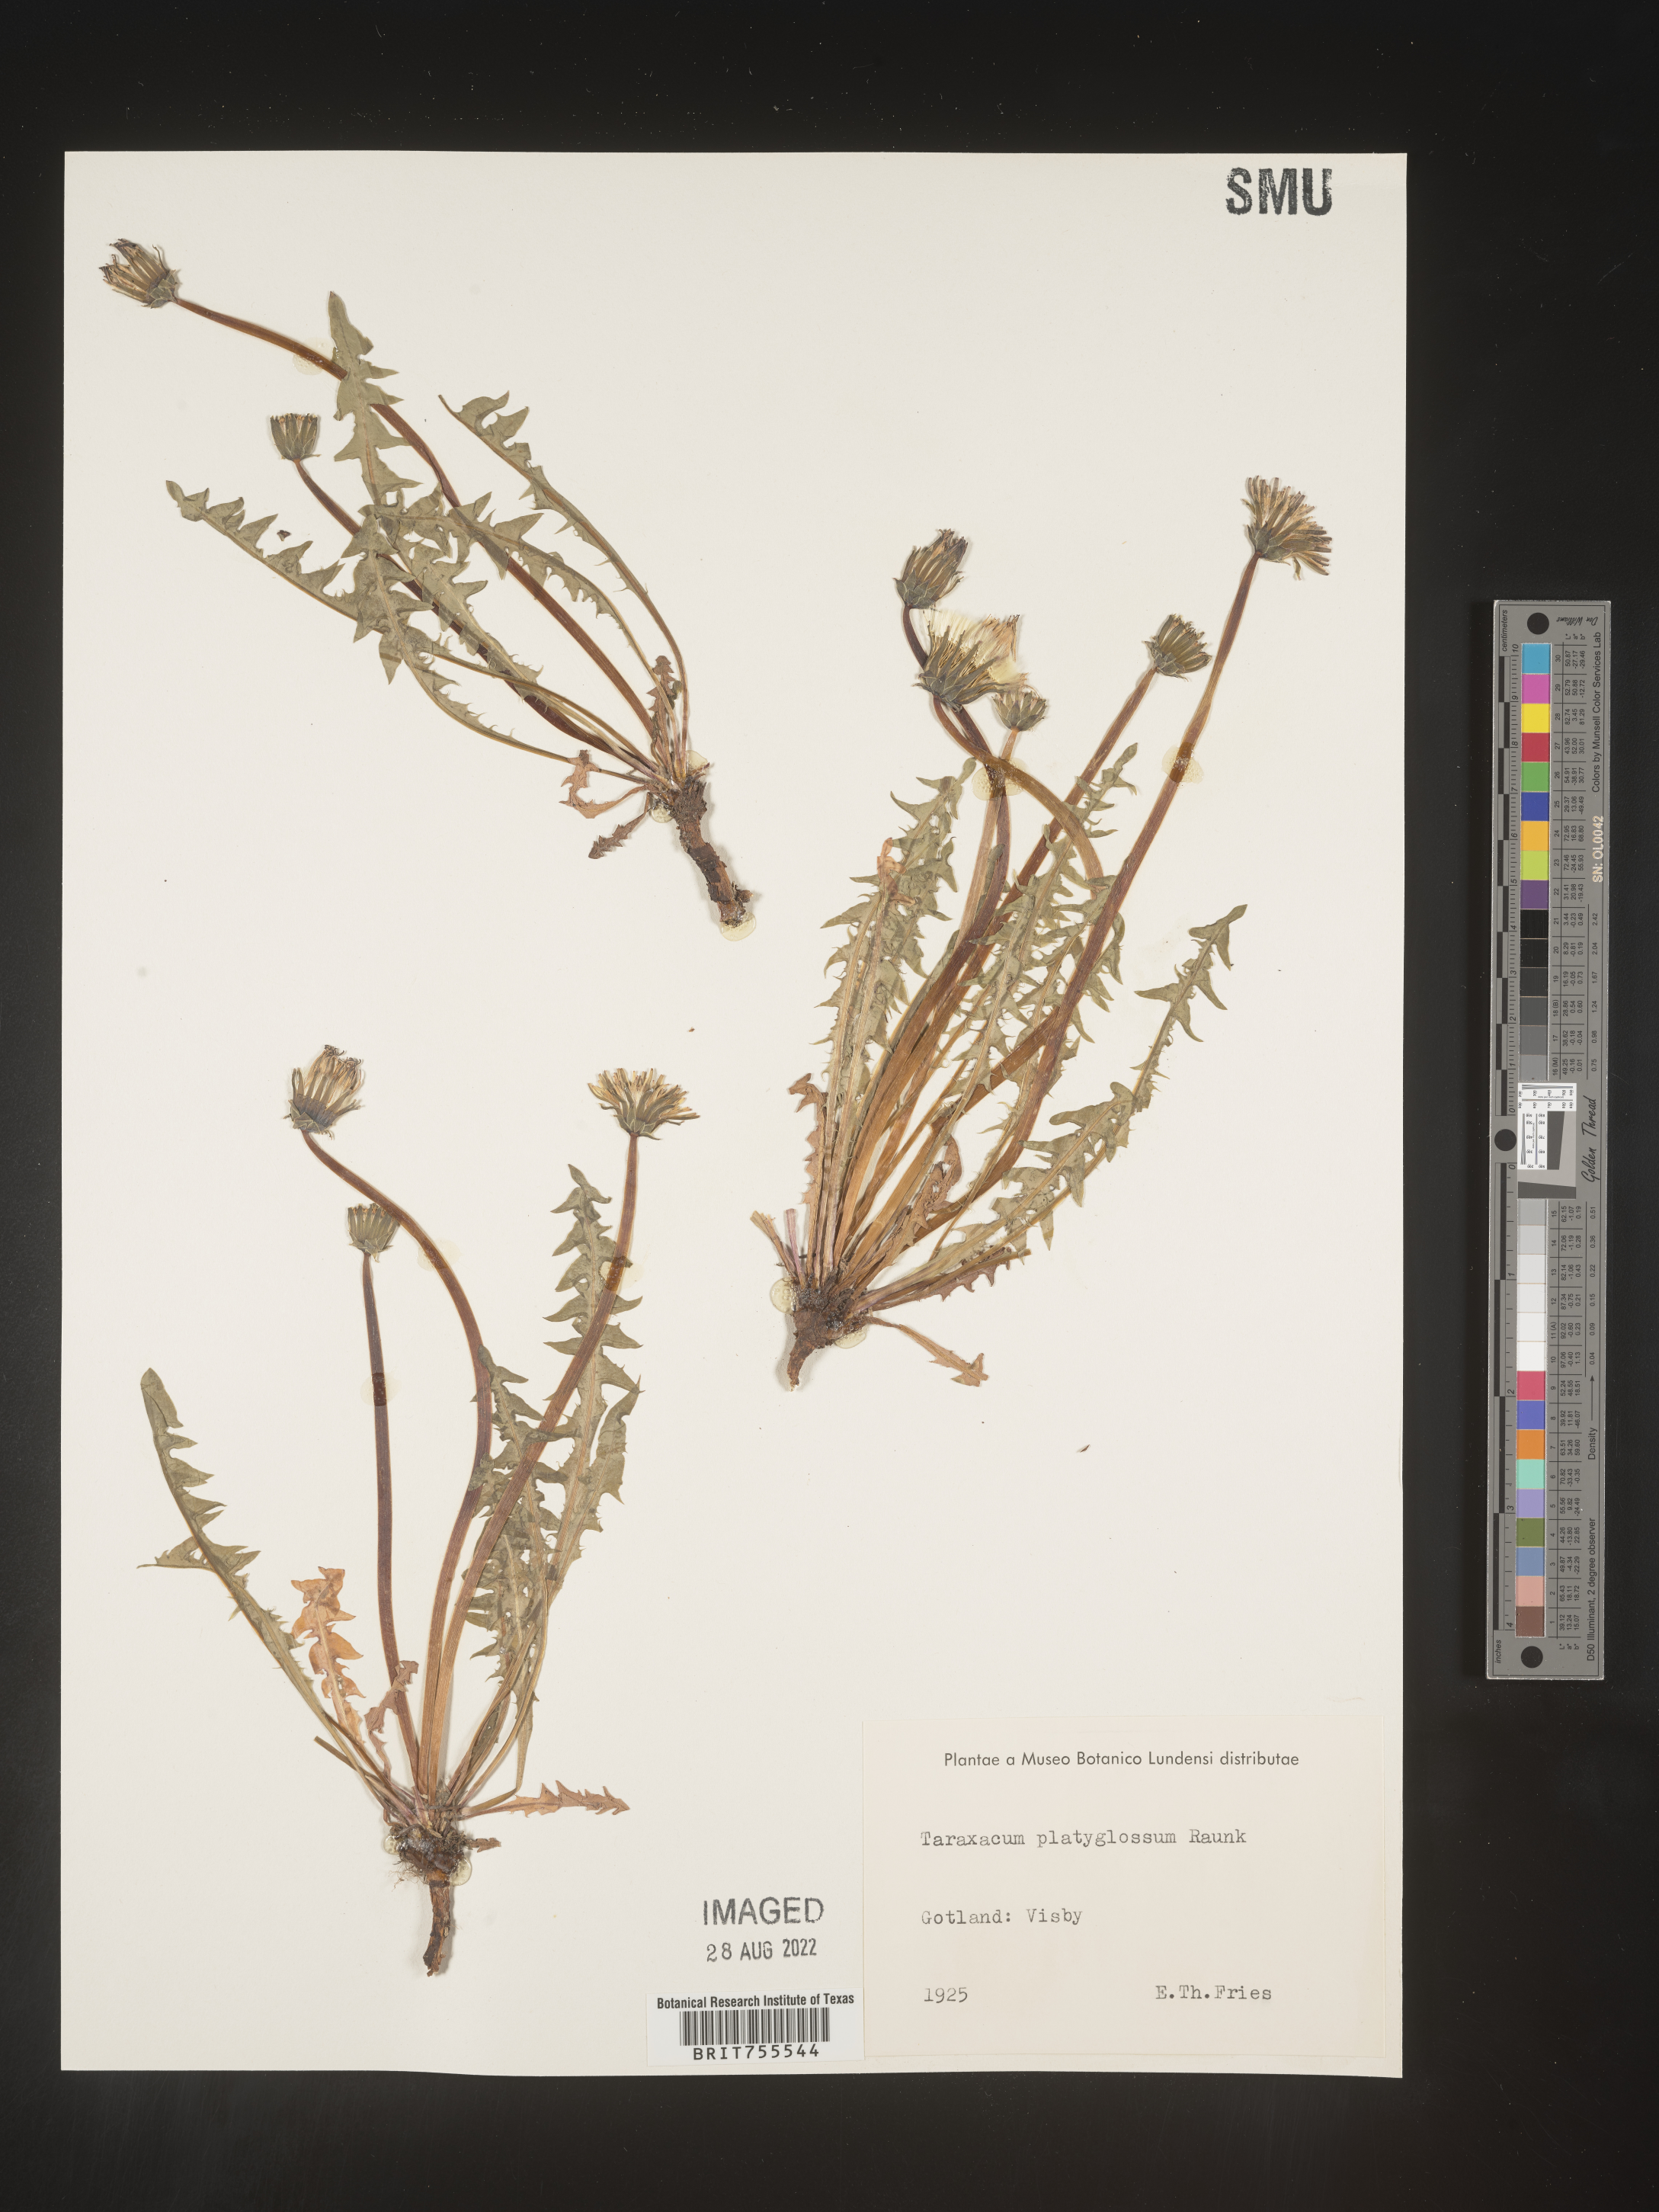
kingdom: Plantae
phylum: Tracheophyta
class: Magnoliopsida
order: Asterales
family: Asteraceae
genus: Taraxacum
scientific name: Taraxacum
